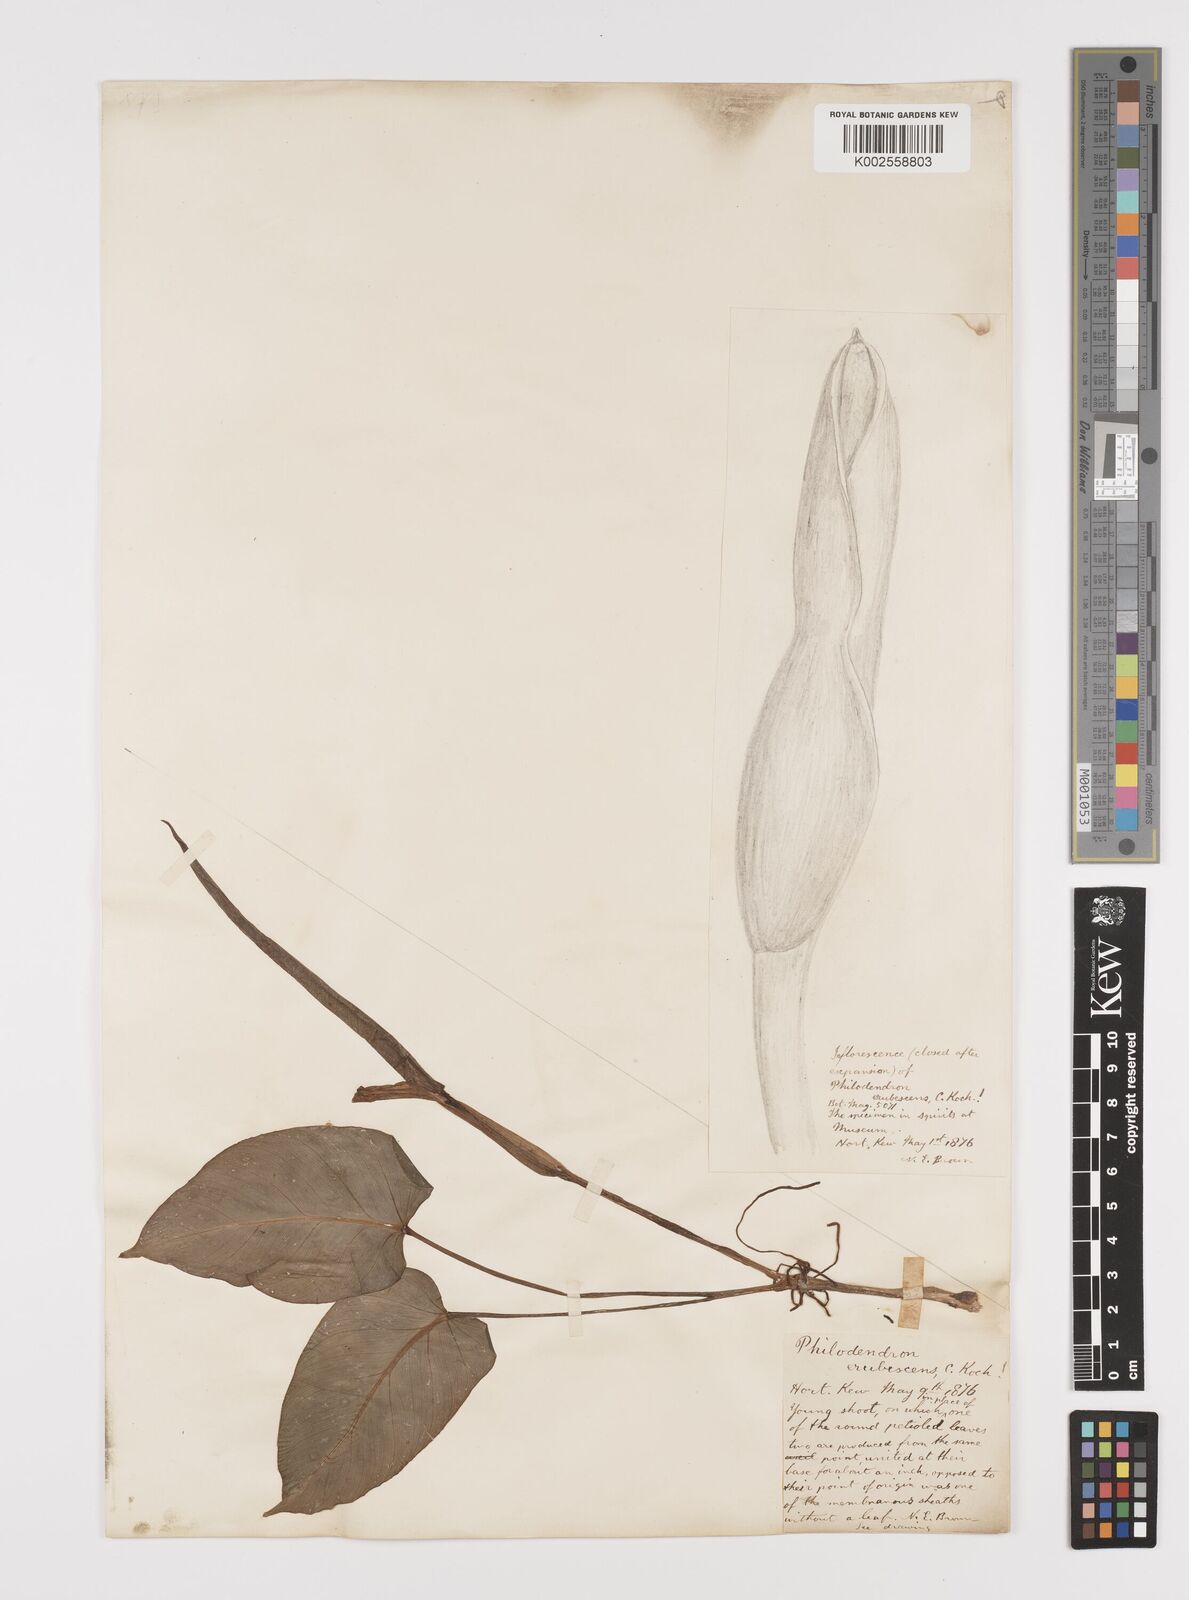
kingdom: Plantae
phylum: Tracheophyta
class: Liliopsida
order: Alismatales
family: Araceae
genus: Philodendron
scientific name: Philodendron erubescens
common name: Philodendron
